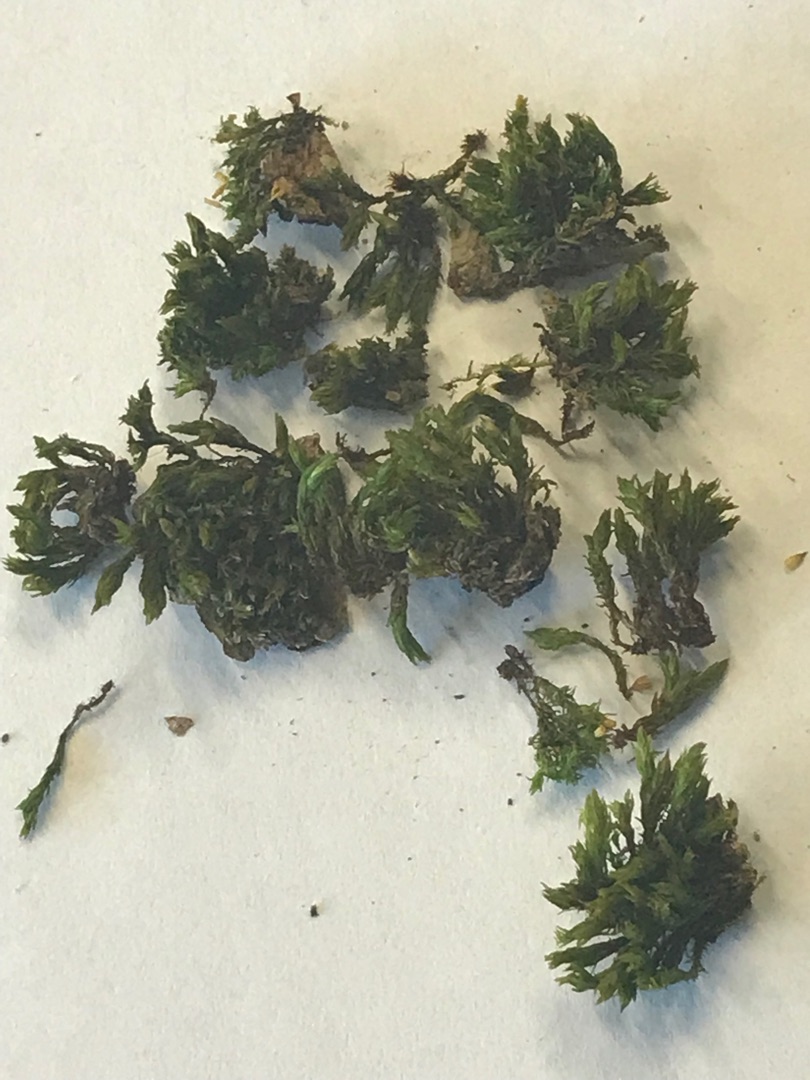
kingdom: Plantae
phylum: Bryophyta
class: Bryopsida
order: Orthotrichales
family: Orthotrichaceae
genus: Lewinskya
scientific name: Lewinskya affinis
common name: Almindelig furehætte
